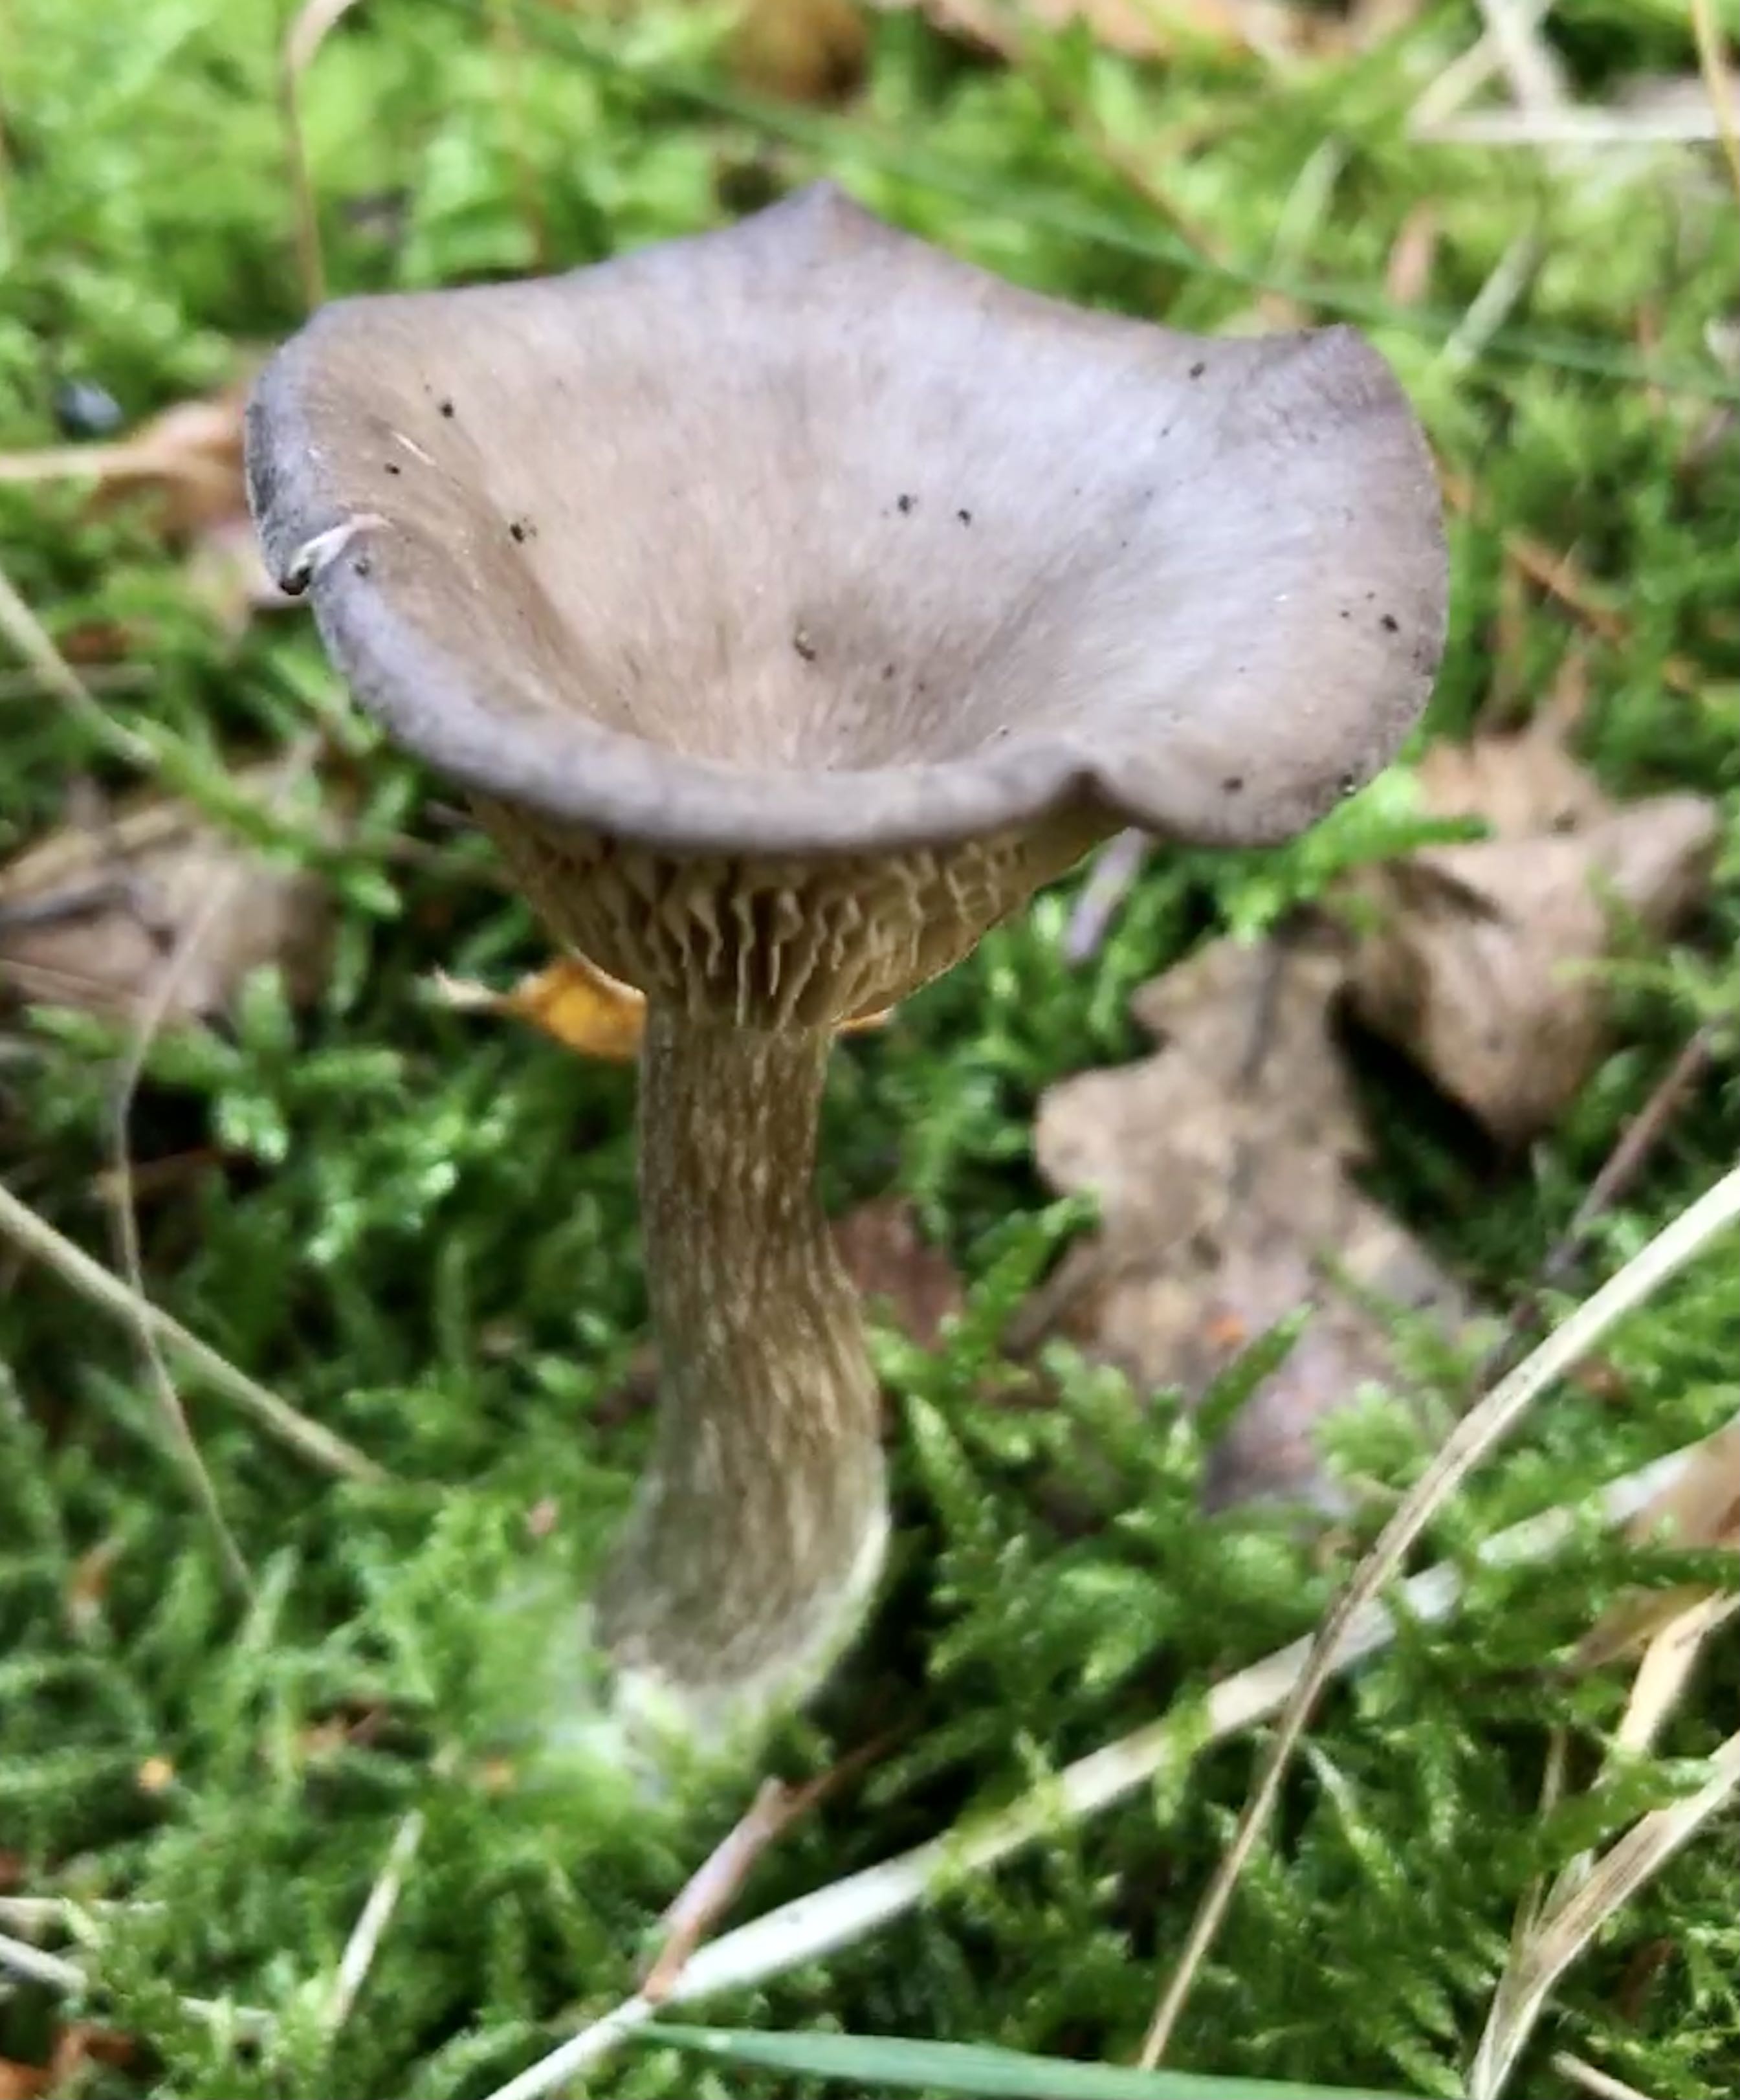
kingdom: Fungi
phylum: Basidiomycota
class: Agaricomycetes
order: Agaricales
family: Pseudoclitocybaceae
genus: Pseudoclitocybe
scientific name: Pseudoclitocybe cyathiformis
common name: almindelig bægertragthat
